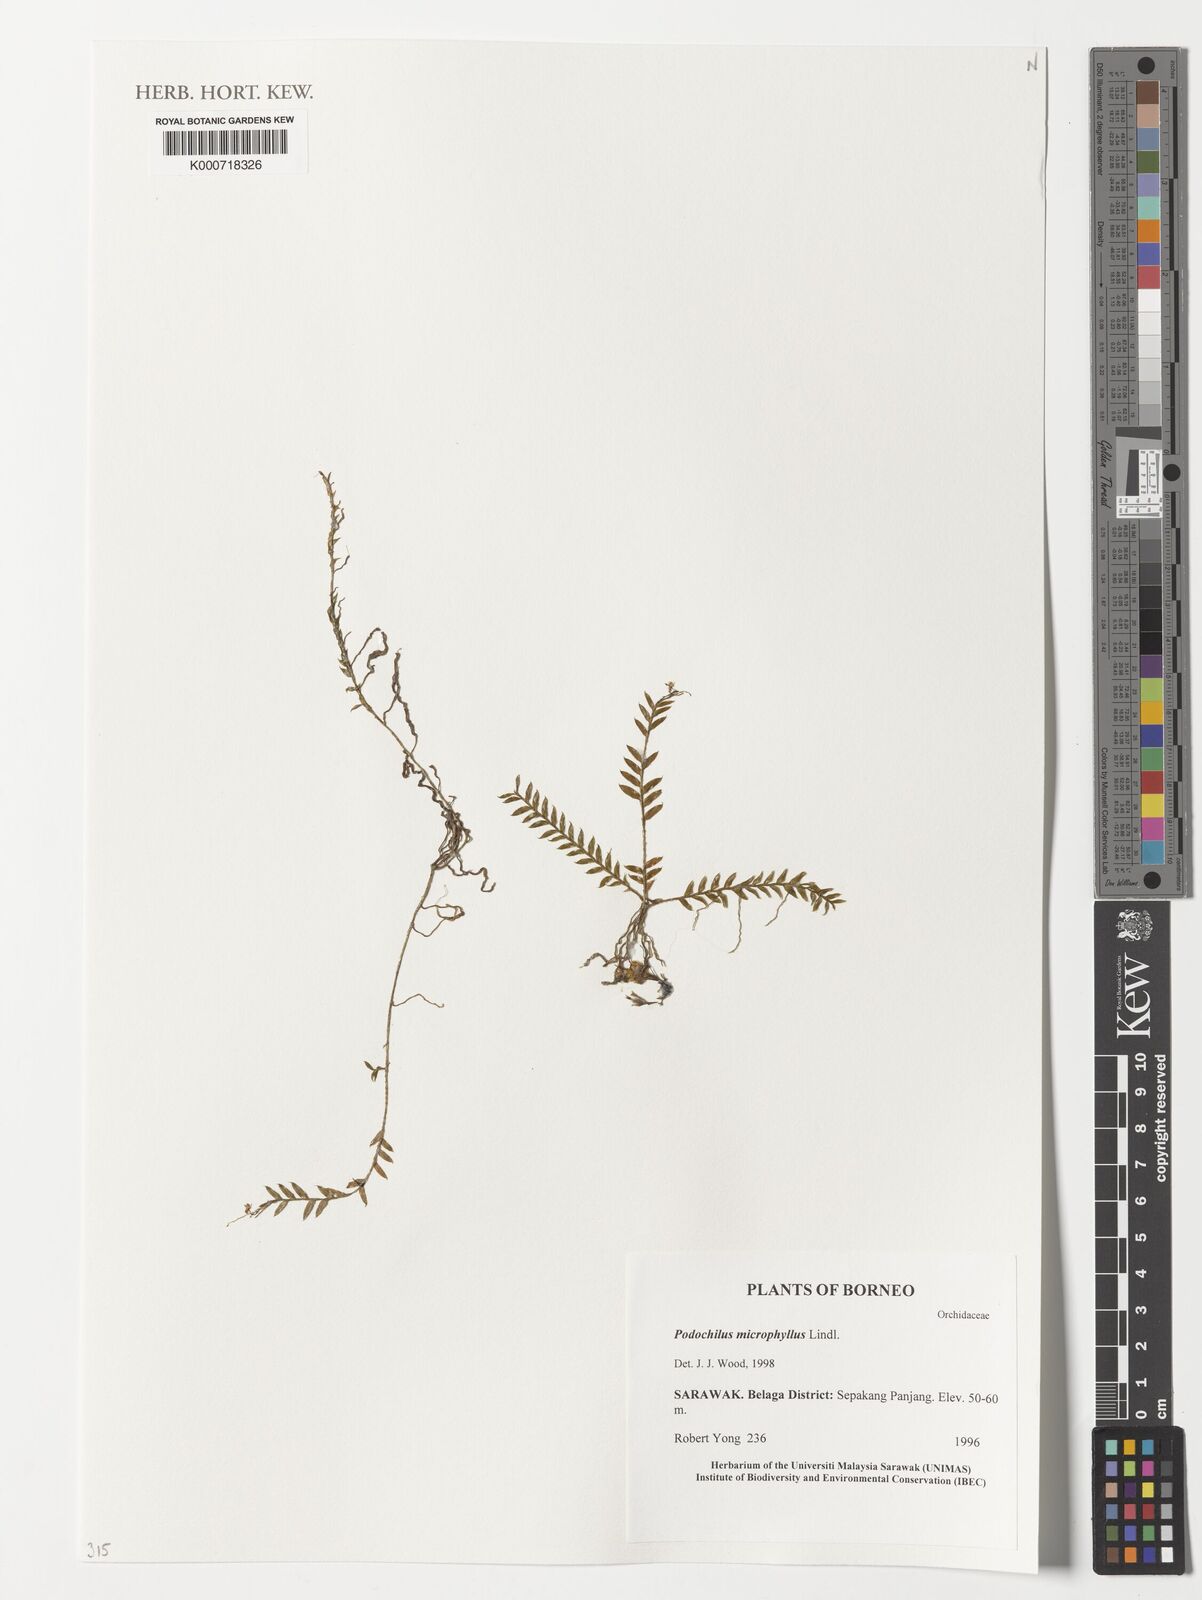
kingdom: Plantae
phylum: Tracheophyta
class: Liliopsida
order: Asparagales
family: Orchidaceae
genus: Podochilus
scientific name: Podochilus microphyllus
